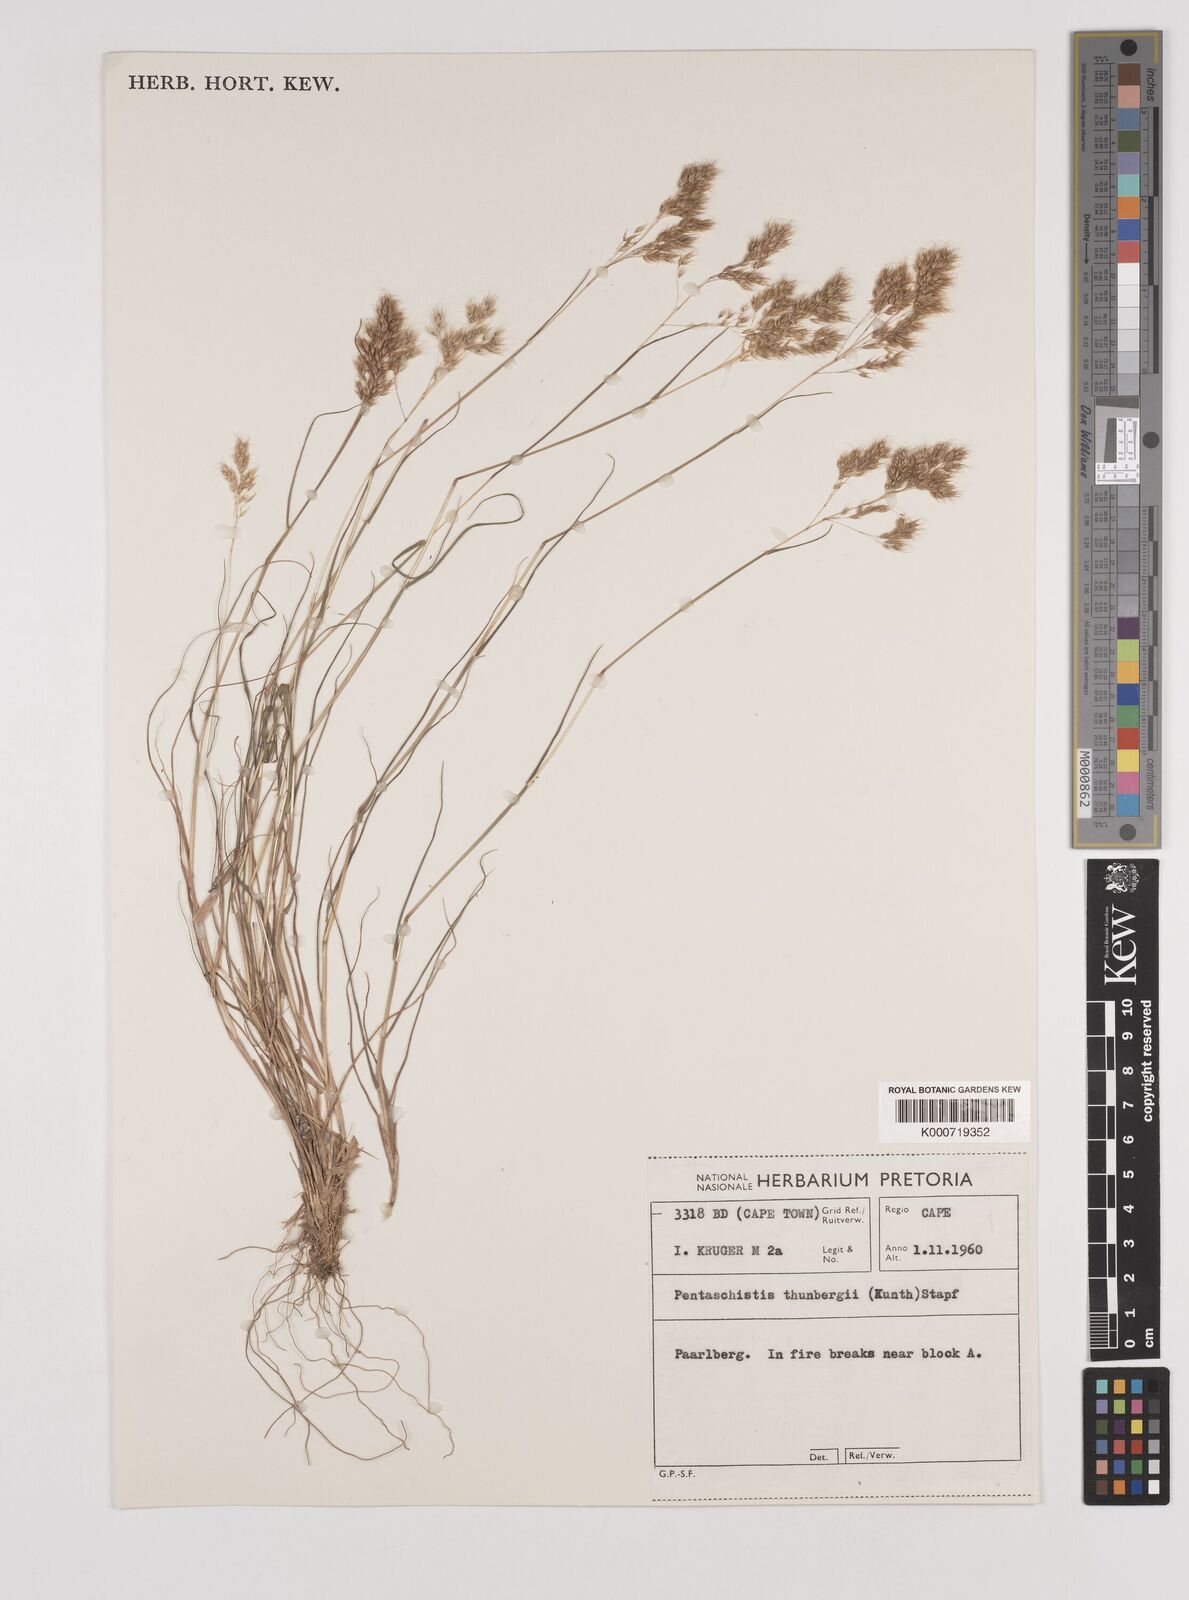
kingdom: Plantae
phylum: Tracheophyta
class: Liliopsida
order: Poales
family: Poaceae
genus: Pentameris
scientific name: Pentameris triseta
